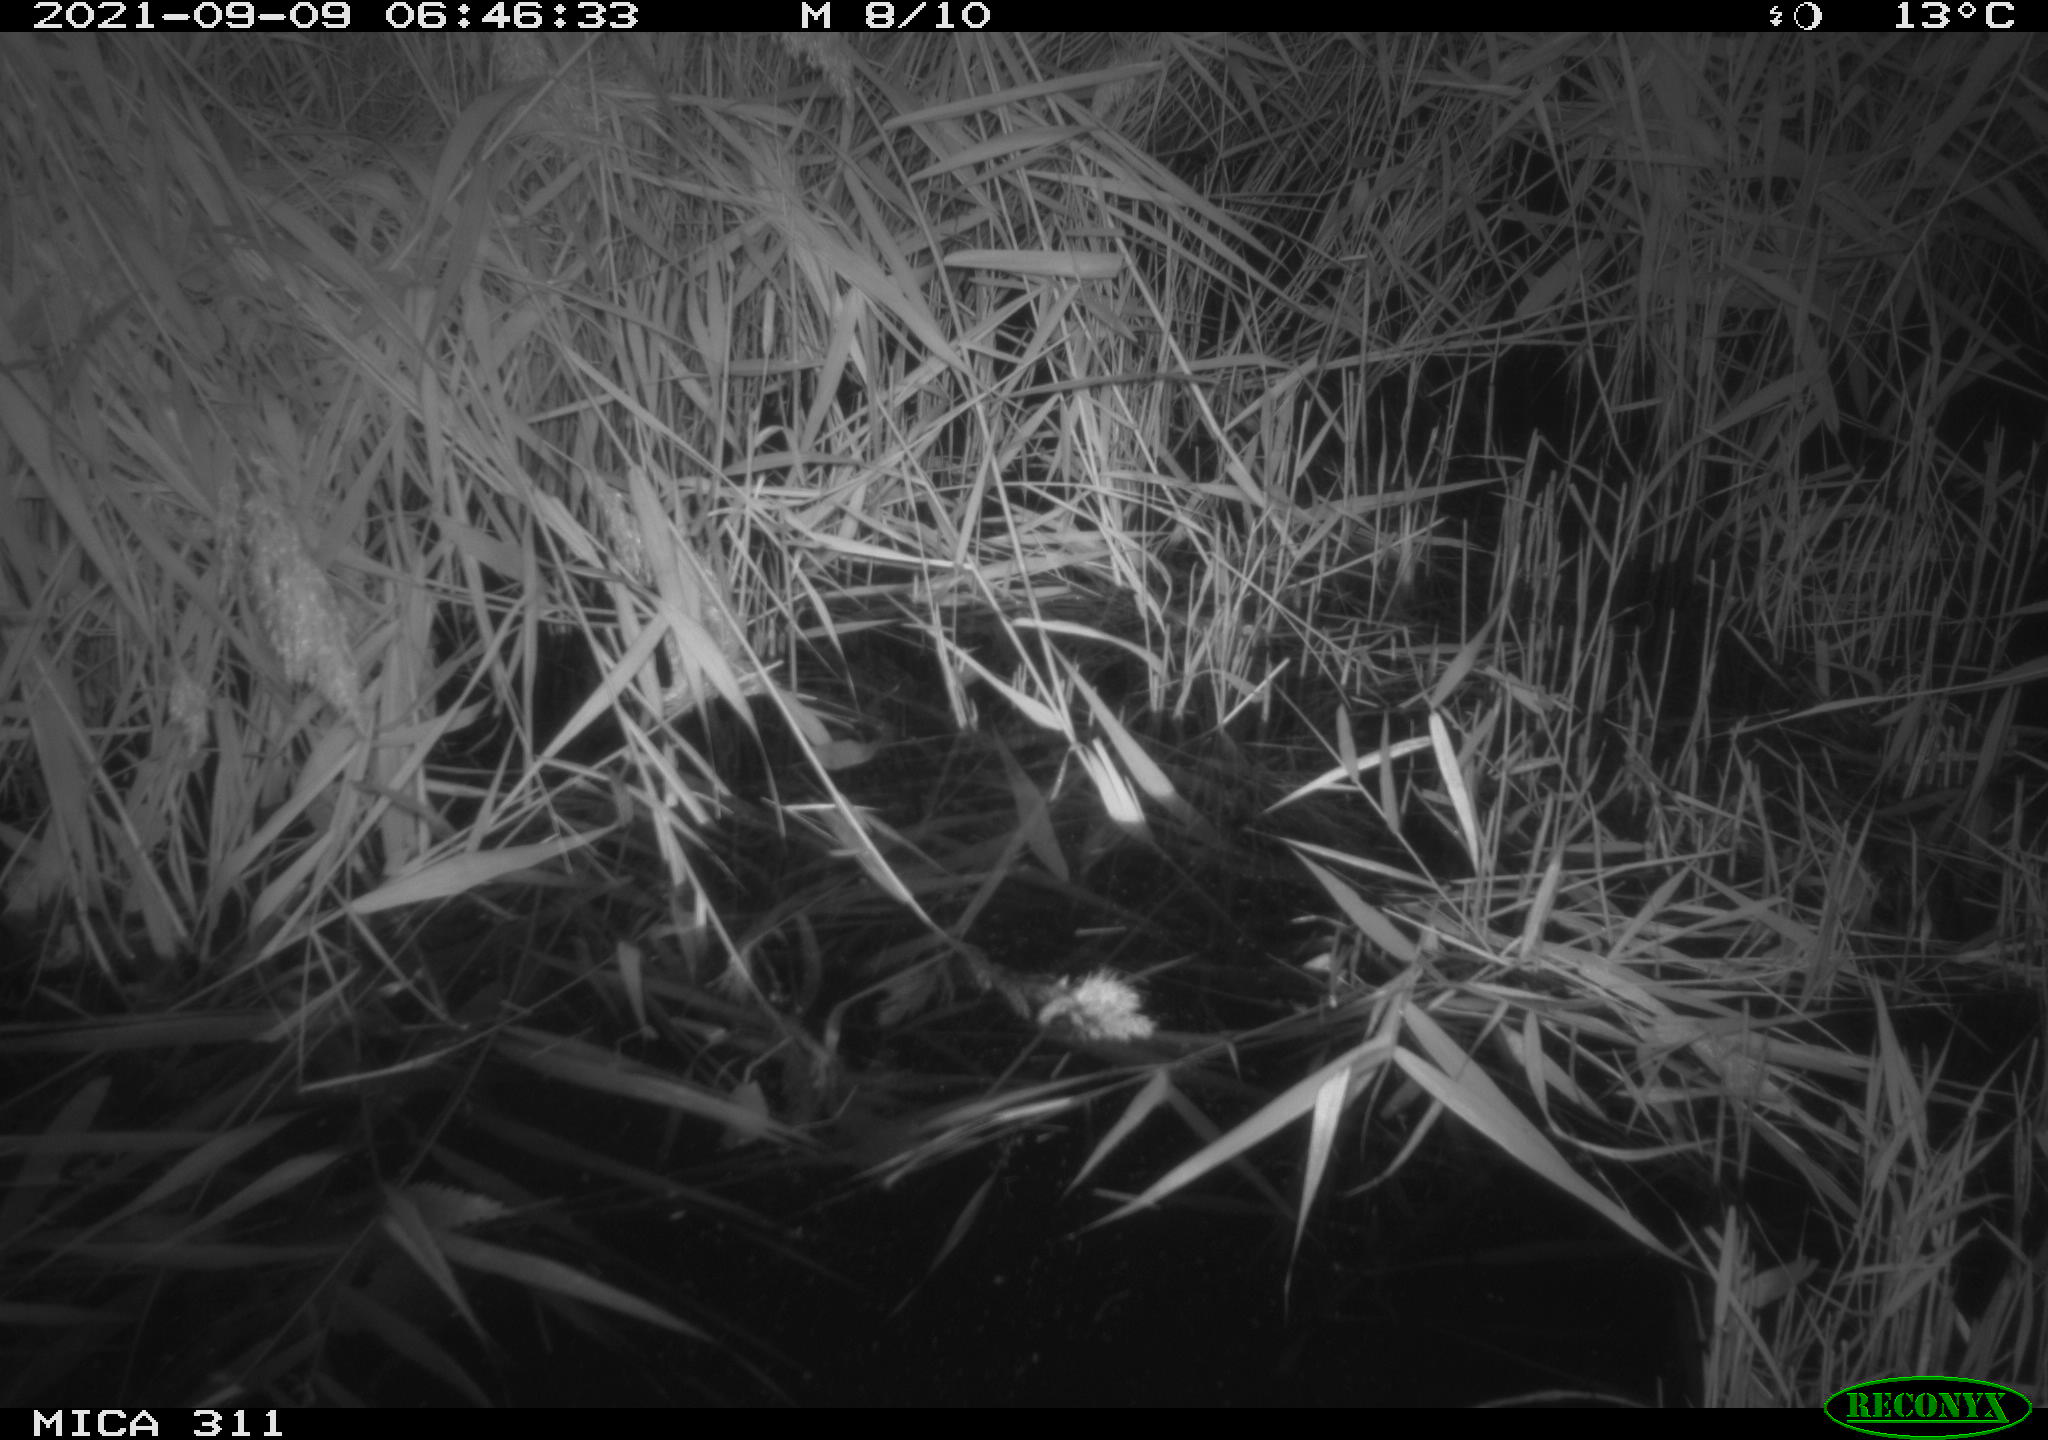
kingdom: Animalia
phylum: Chordata
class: Mammalia
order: Rodentia
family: Muridae
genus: Rattus
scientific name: Rattus norvegicus
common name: Brown rat
